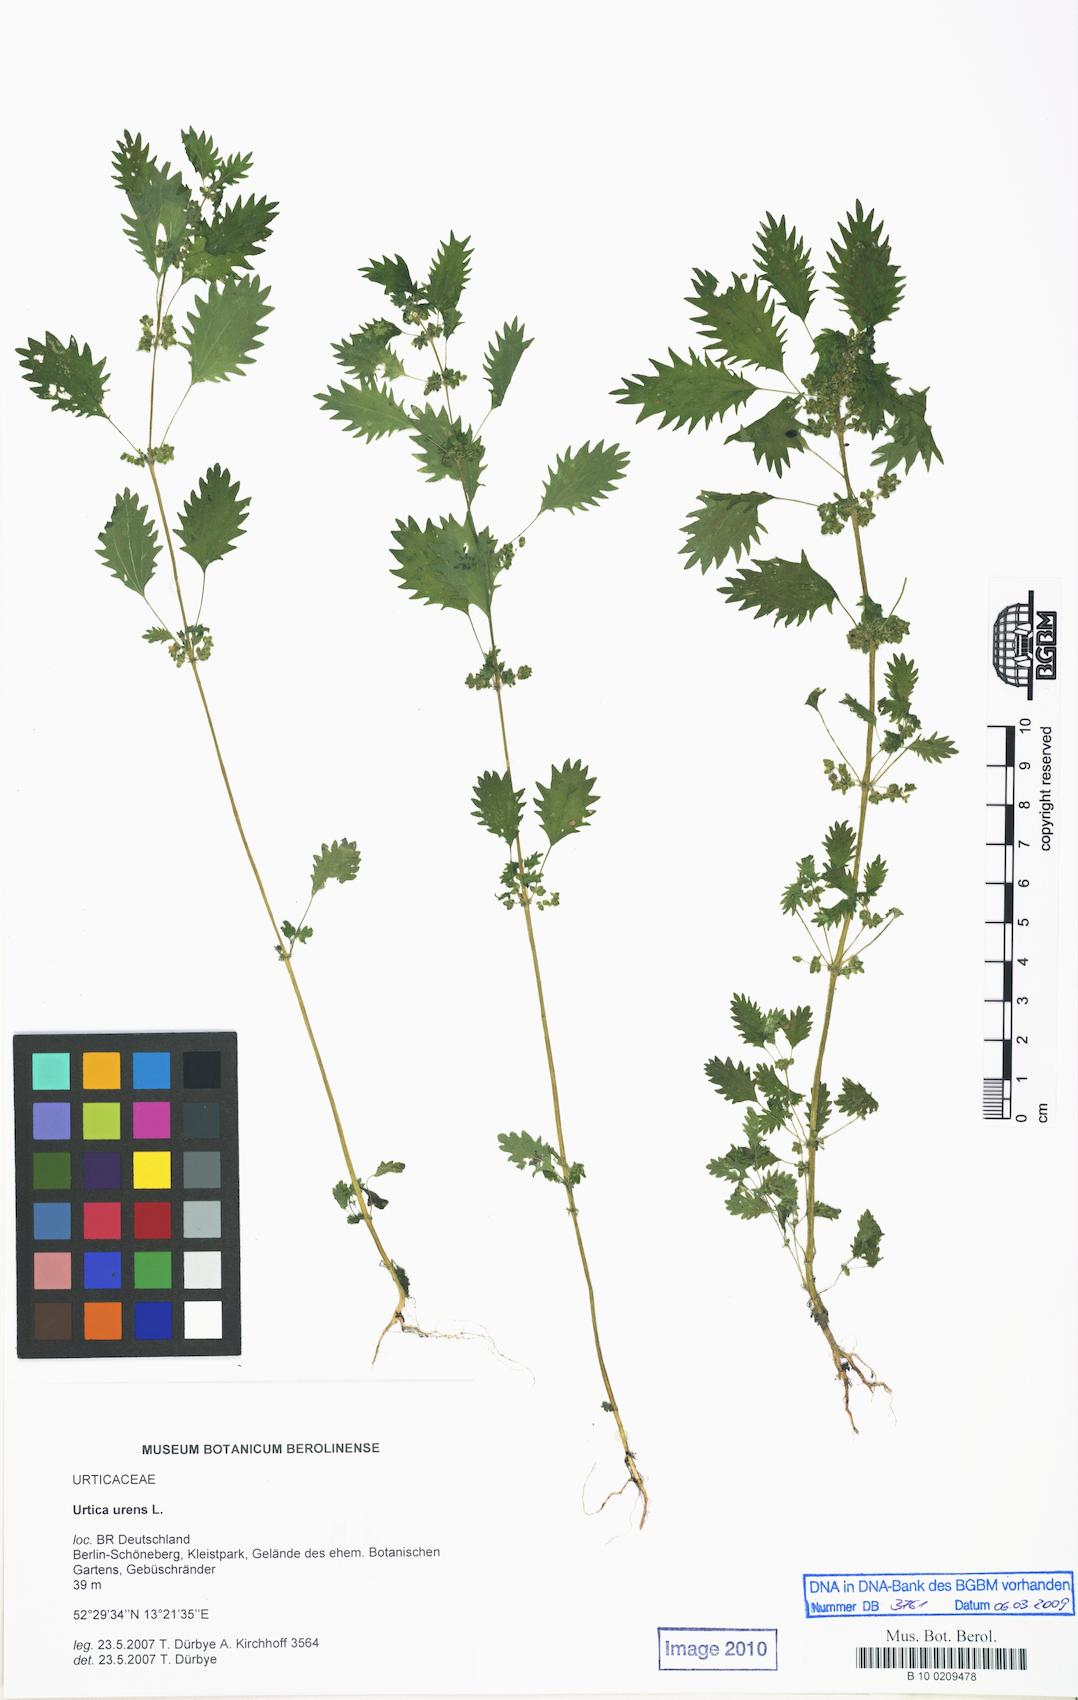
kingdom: Plantae
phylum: Tracheophyta
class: Magnoliopsida
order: Rosales
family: Urticaceae
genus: Urtica
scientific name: Urtica urens
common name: Dwarf nettle
